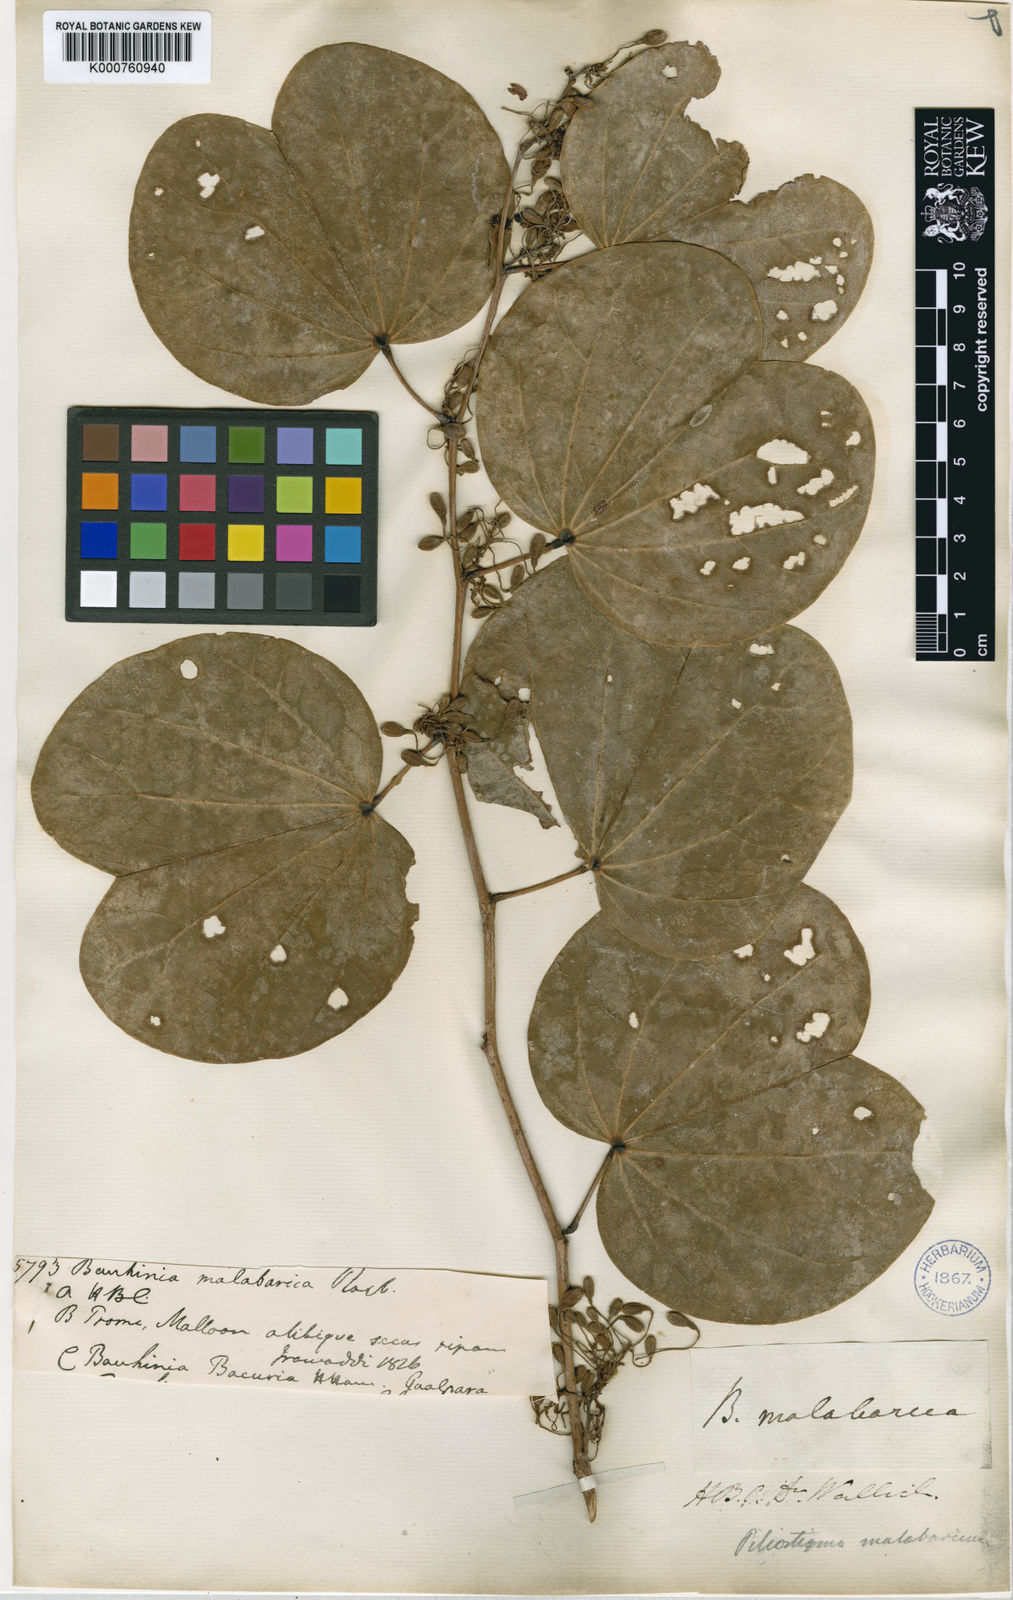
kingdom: Plantae
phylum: Tracheophyta
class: Magnoliopsida
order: Fabales
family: Fabaceae
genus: Piliostigma
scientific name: Piliostigma malabaricum
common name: Malabar bauhinia
